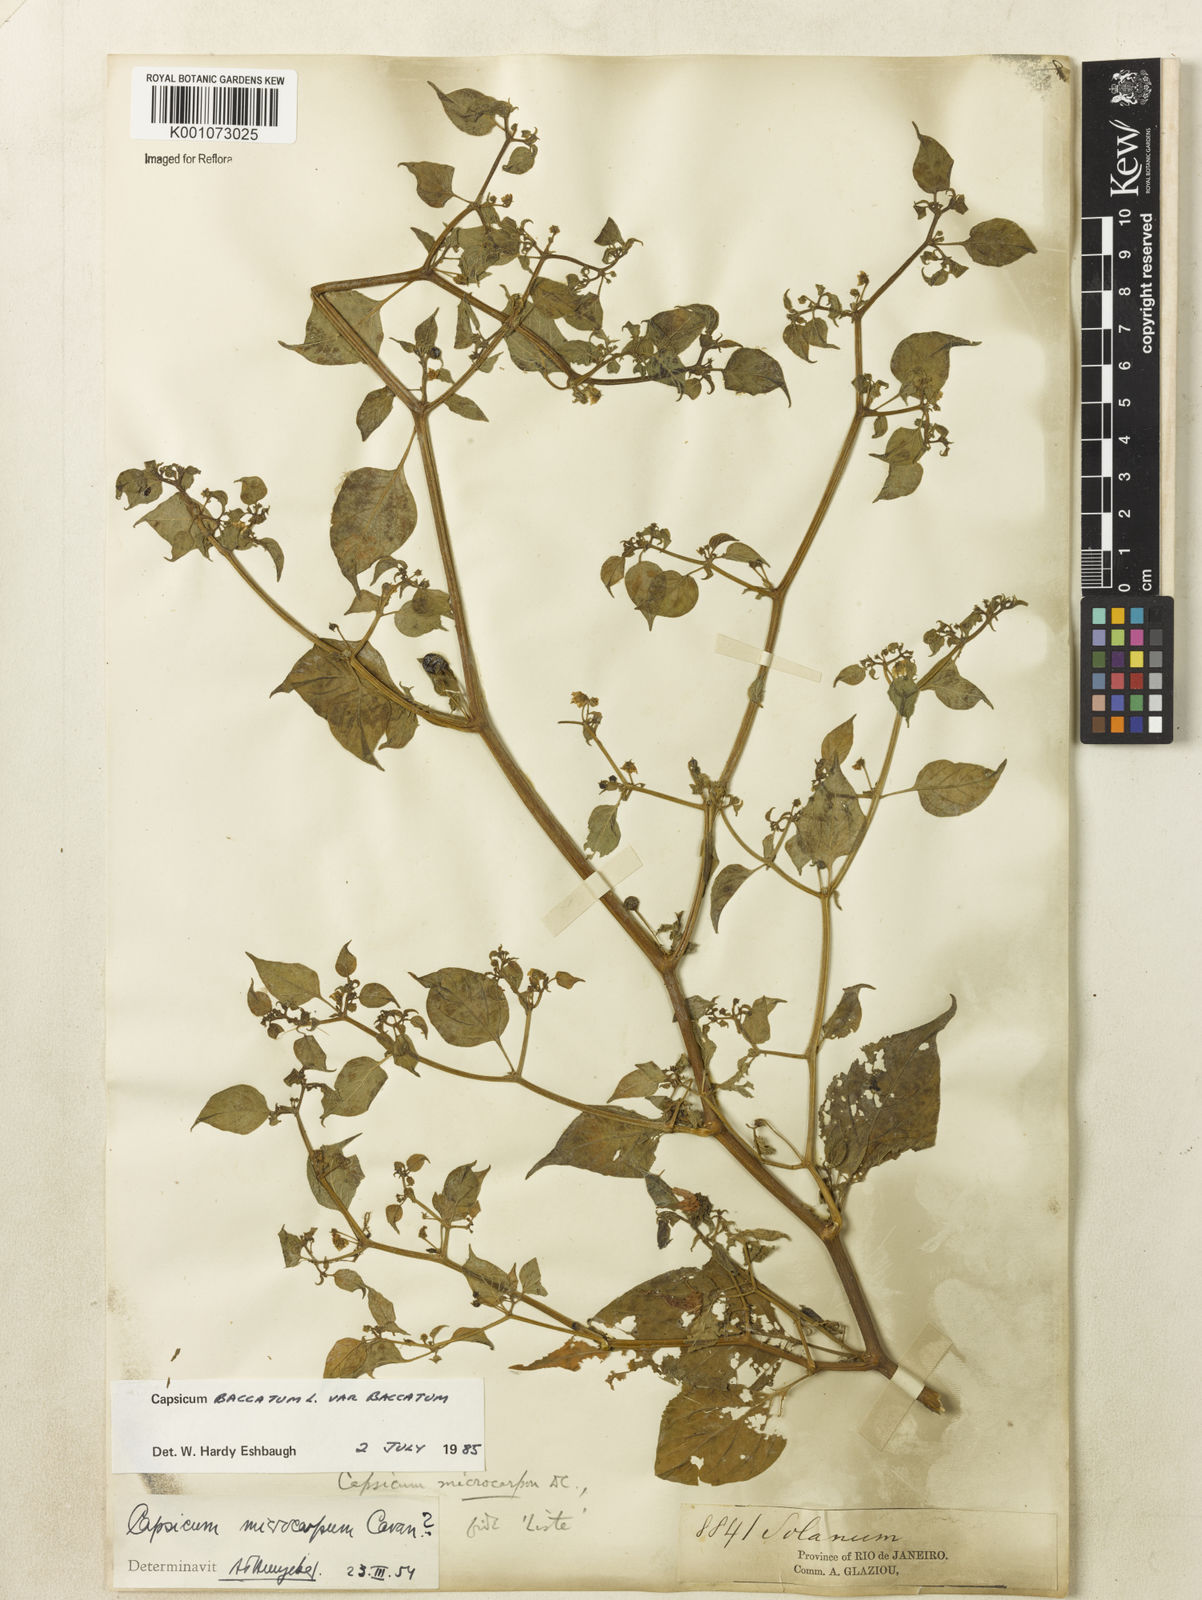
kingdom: Plantae
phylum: Tracheophyta
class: Magnoliopsida
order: Solanales
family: Solanaceae
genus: Capsicum
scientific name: Capsicum baccatum
